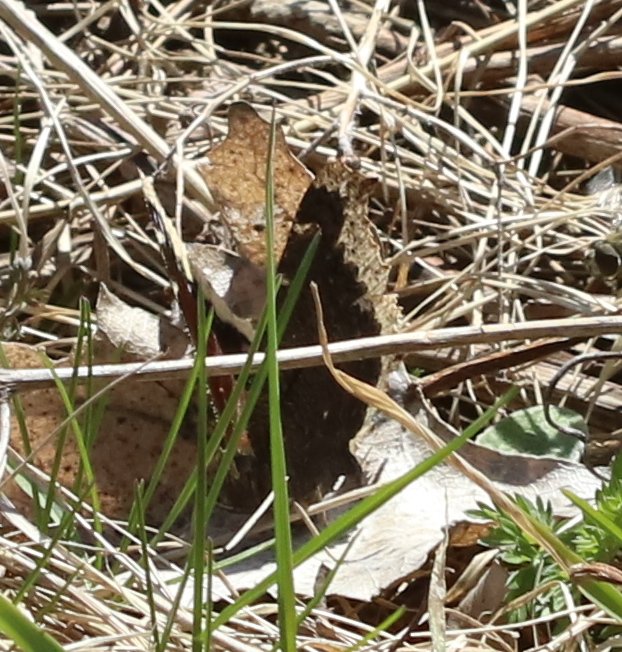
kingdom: Animalia
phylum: Arthropoda
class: Insecta
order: Lepidoptera
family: Nymphalidae
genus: Nymphalis
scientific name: Nymphalis antiopa
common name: Mourning Cloak
